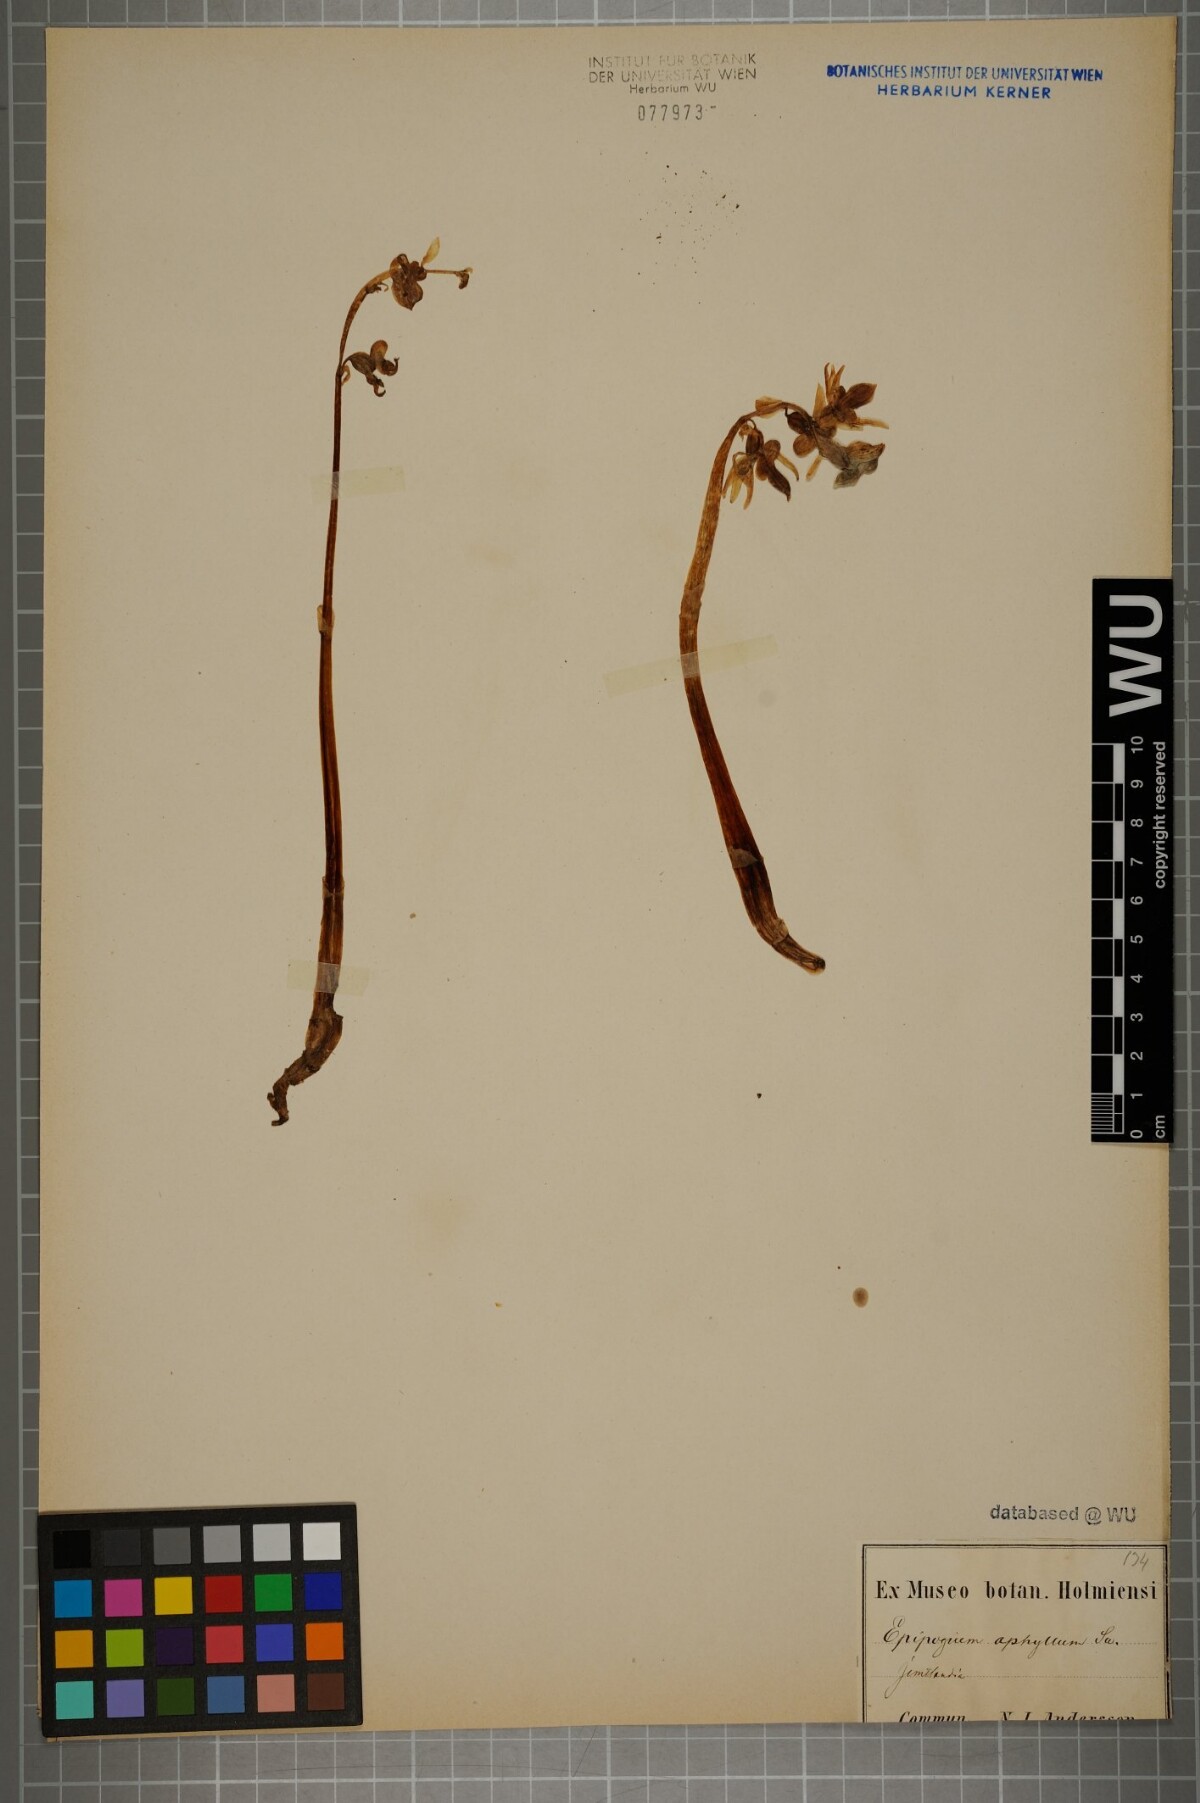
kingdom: Plantae
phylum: Tracheophyta
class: Liliopsida
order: Asparagales
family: Orchidaceae
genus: Epipogium
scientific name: Epipogium aphyllum
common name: Ghost orchid
